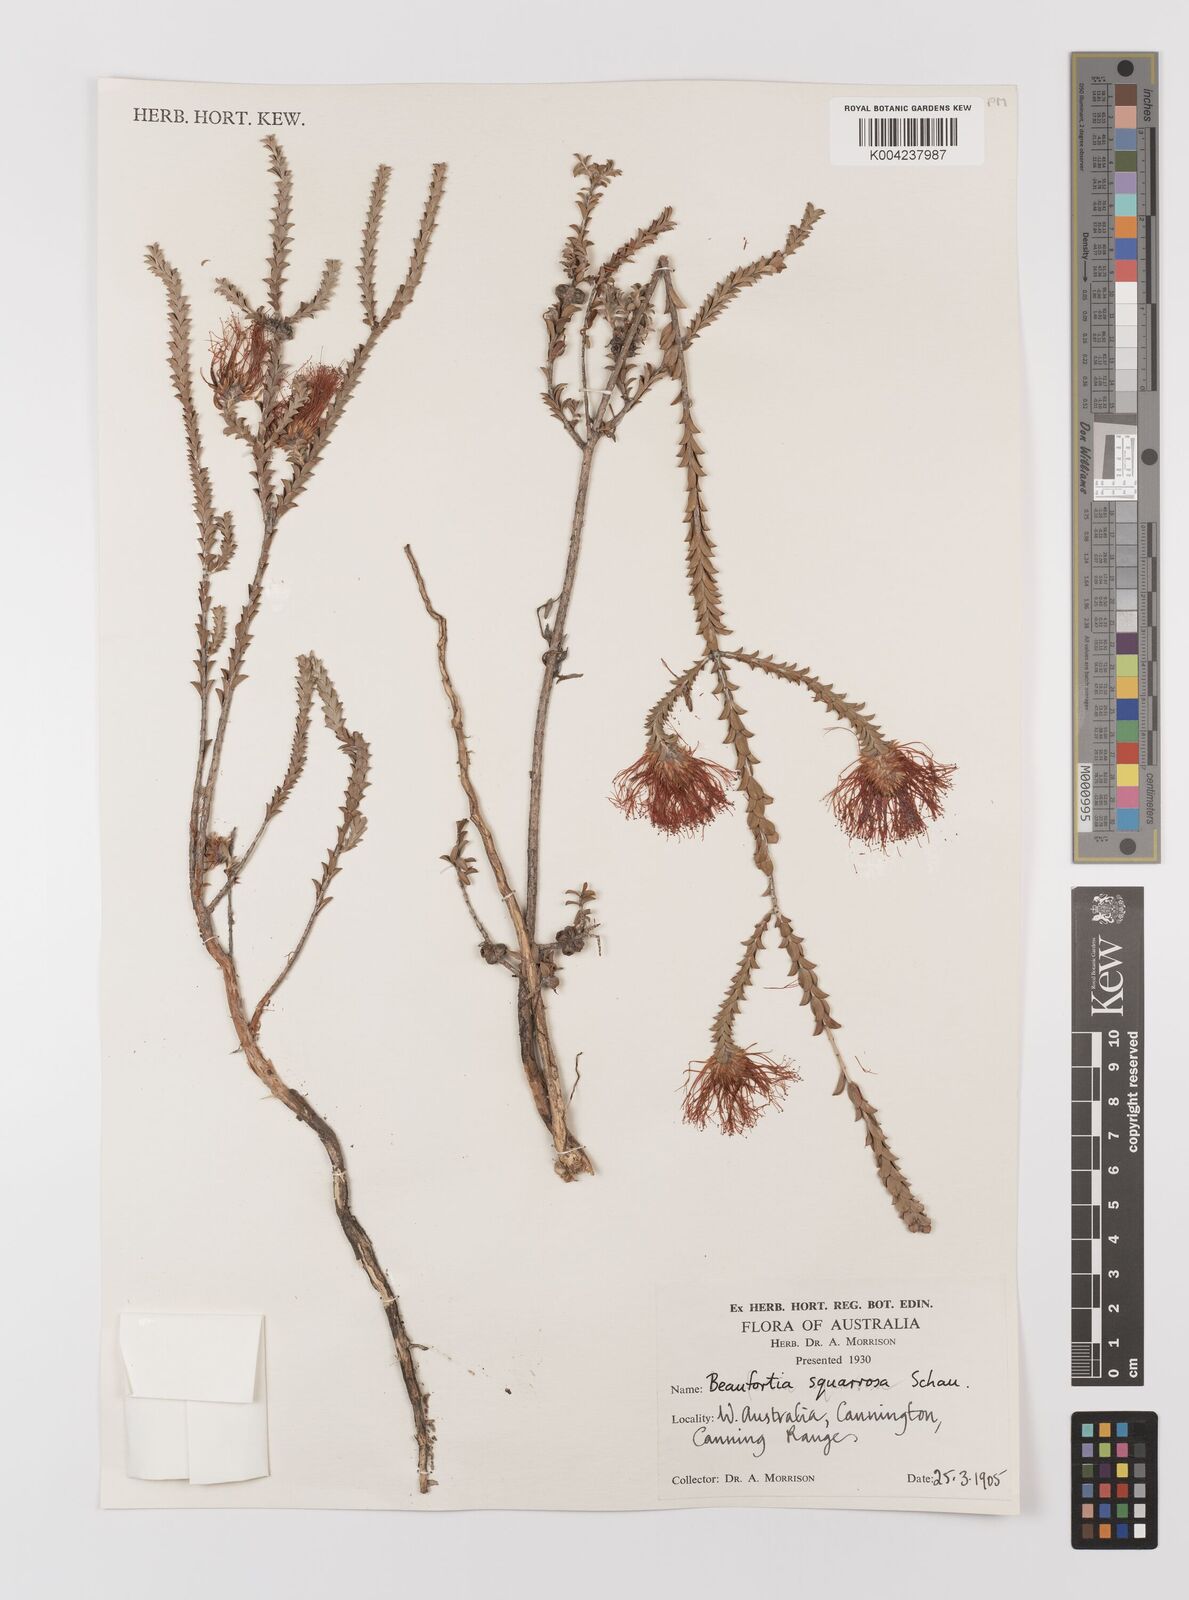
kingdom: Plantae
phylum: Tracheophyta
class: Magnoliopsida
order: Myrtales
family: Myrtaceae
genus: Melaleuca
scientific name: Melaleuca pulcherrima
